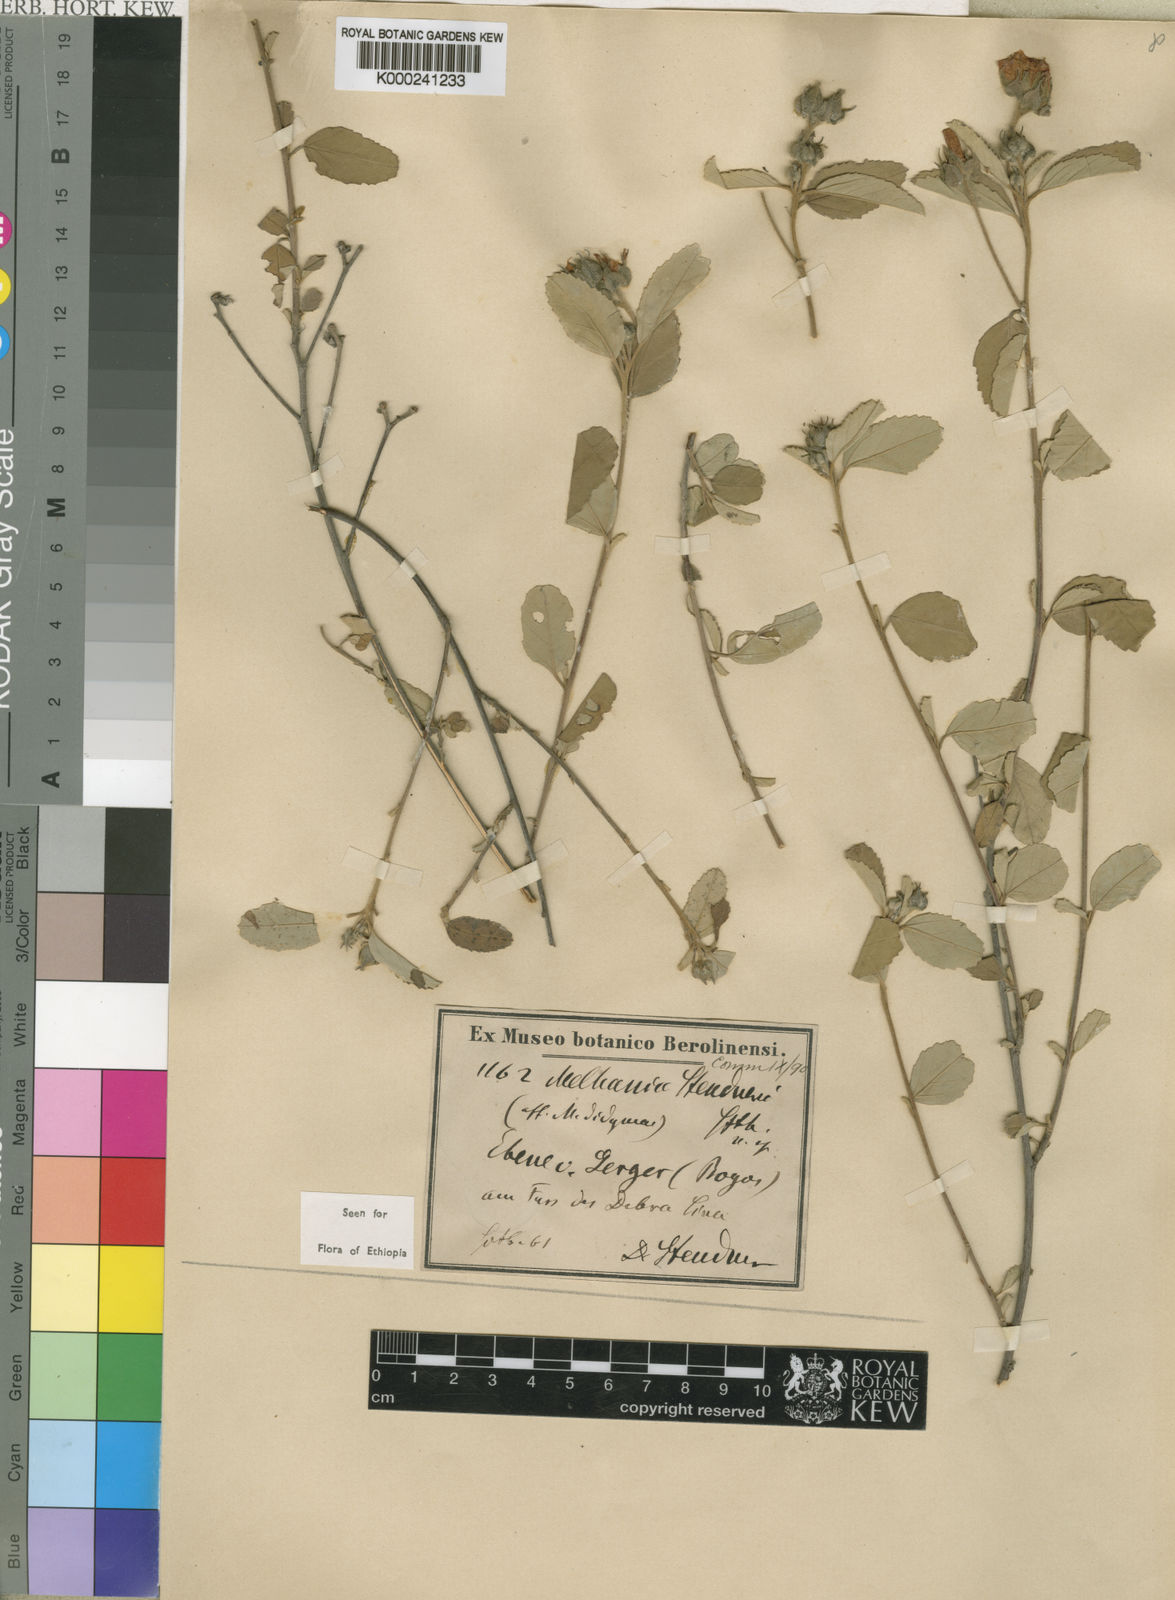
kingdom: Plantae
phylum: Tracheophyta
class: Magnoliopsida
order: Malvales
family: Malvaceae
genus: Melhania
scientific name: Melhania albiflora
